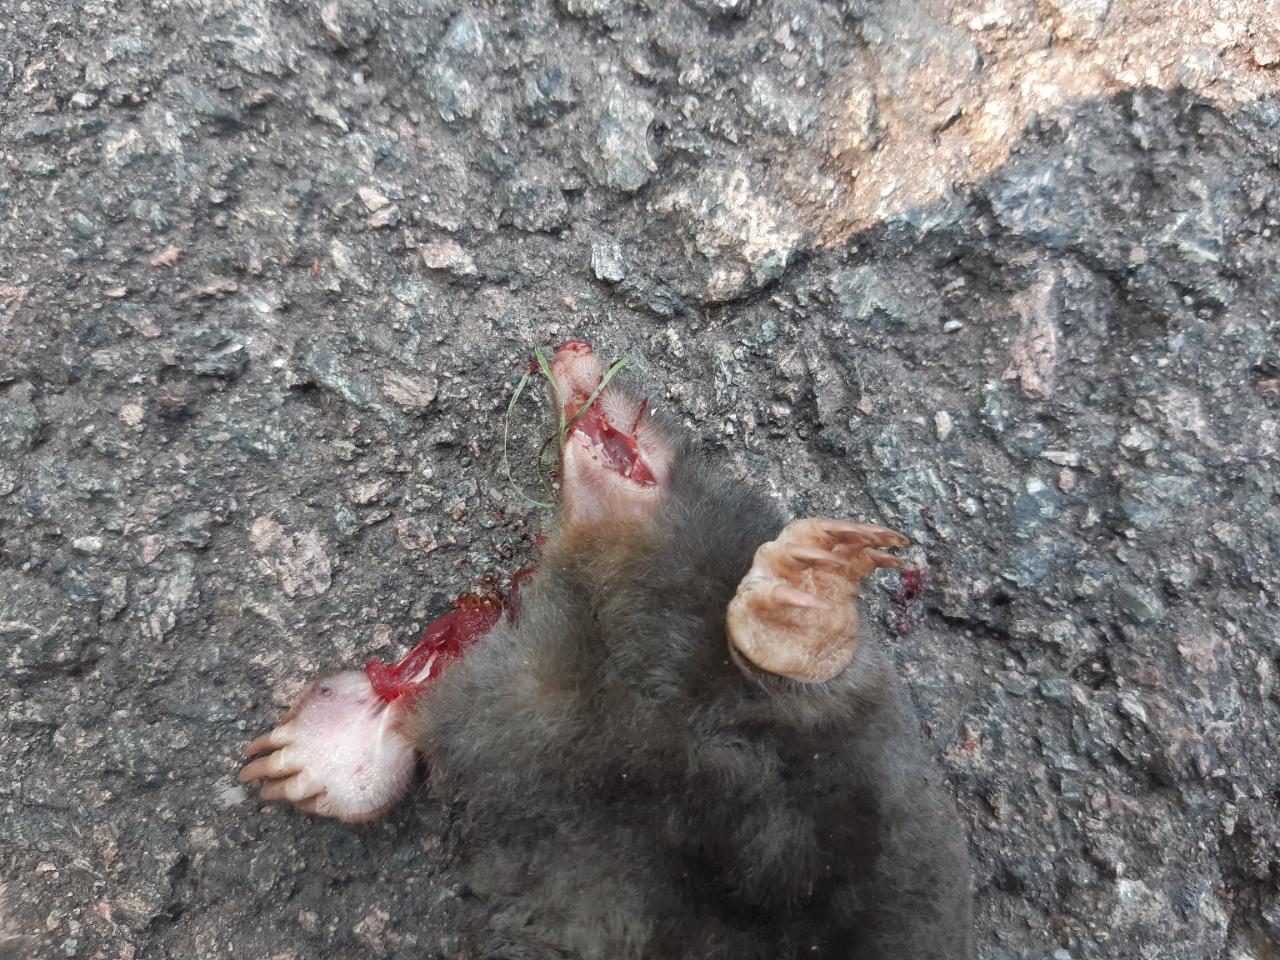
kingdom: Animalia
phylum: Chordata
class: Mammalia
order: Soricomorpha
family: Talpidae
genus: Talpa
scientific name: Talpa europaea
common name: European mole
